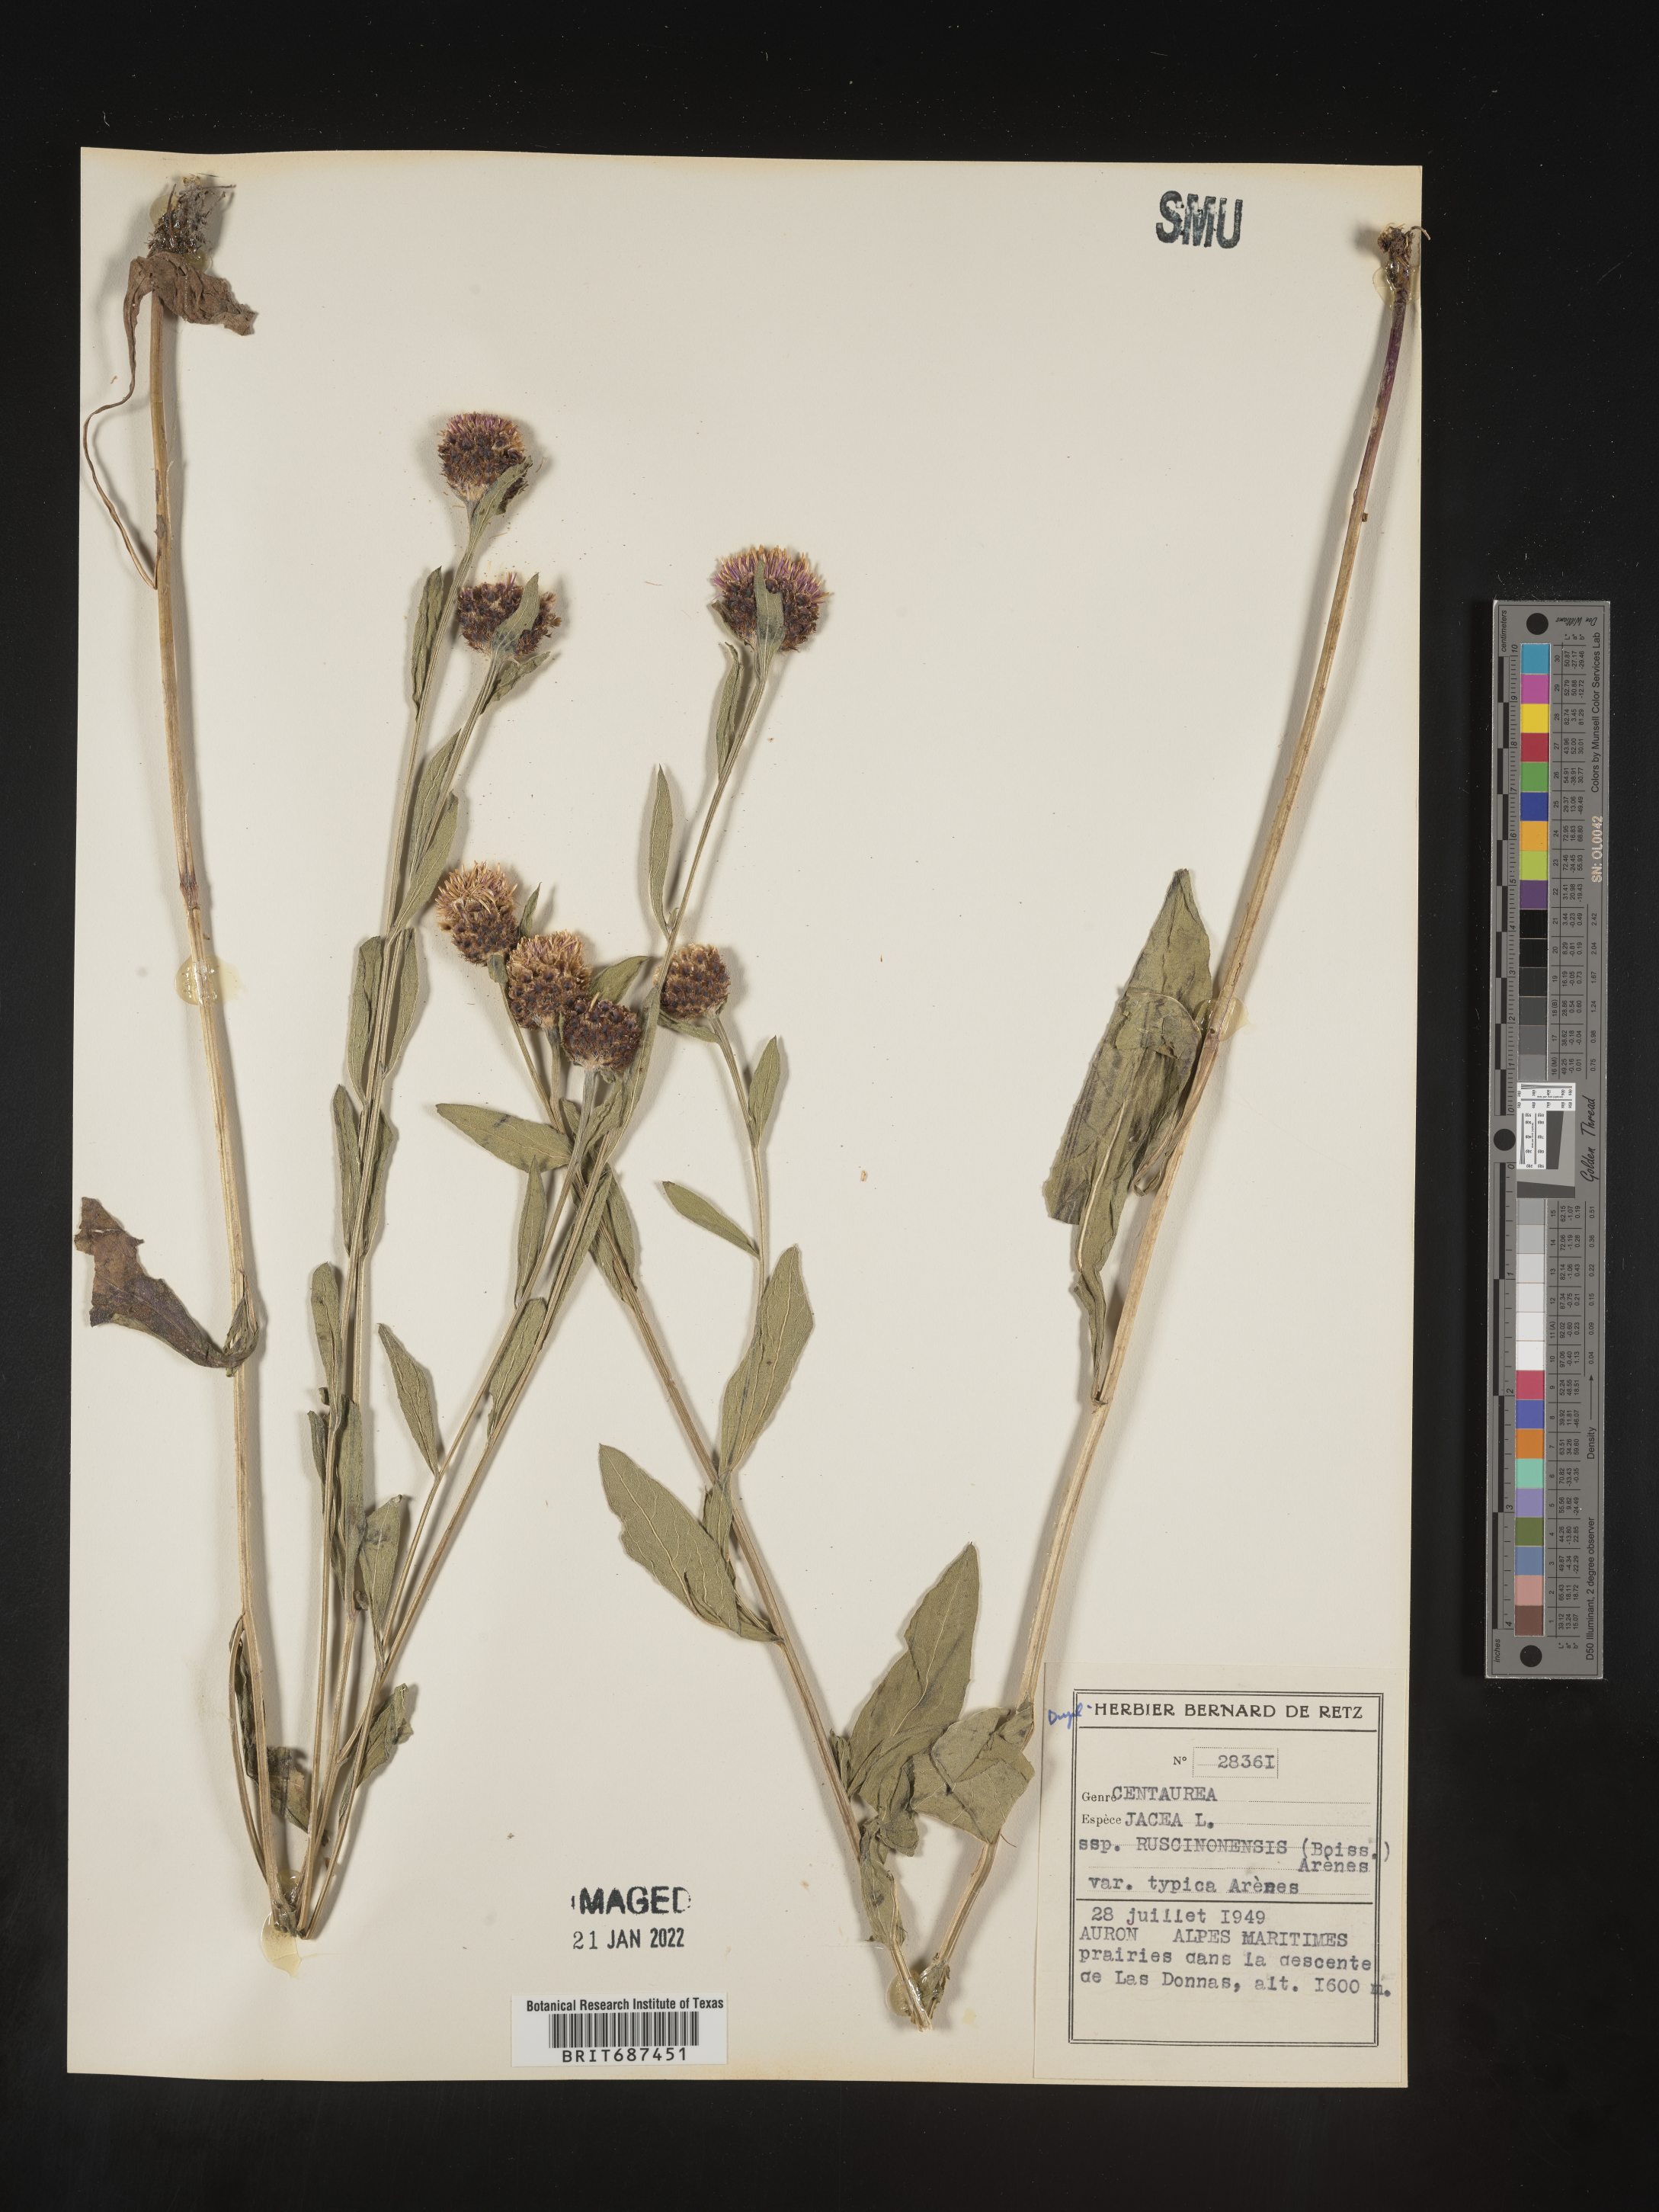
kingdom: Plantae
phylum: Tracheophyta
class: Magnoliopsida
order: Asterales
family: Asteraceae
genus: Centaurea
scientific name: Centaurea jacea
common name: Brown knapweed
